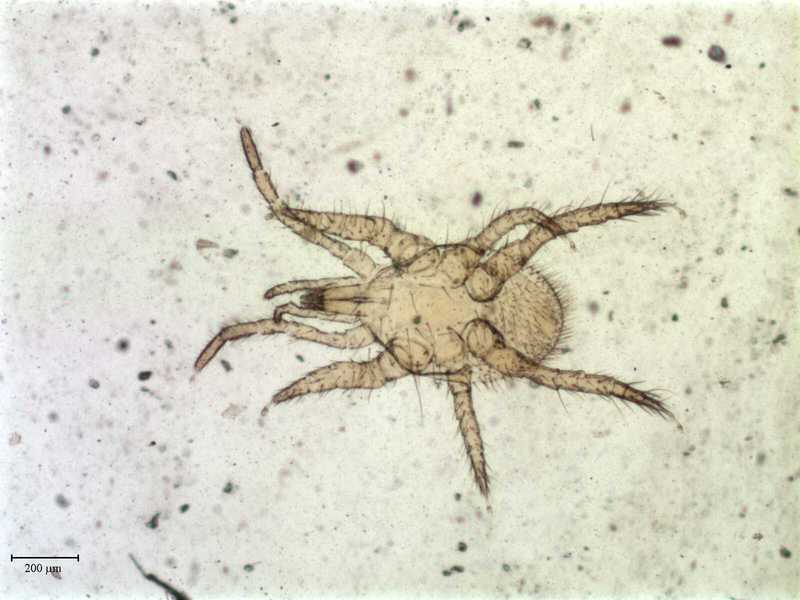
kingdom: Animalia
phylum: Arthropoda
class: Arachnida
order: Mesostigmata
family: Parasitidae
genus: Parasitellus
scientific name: Parasitellus crinitus
